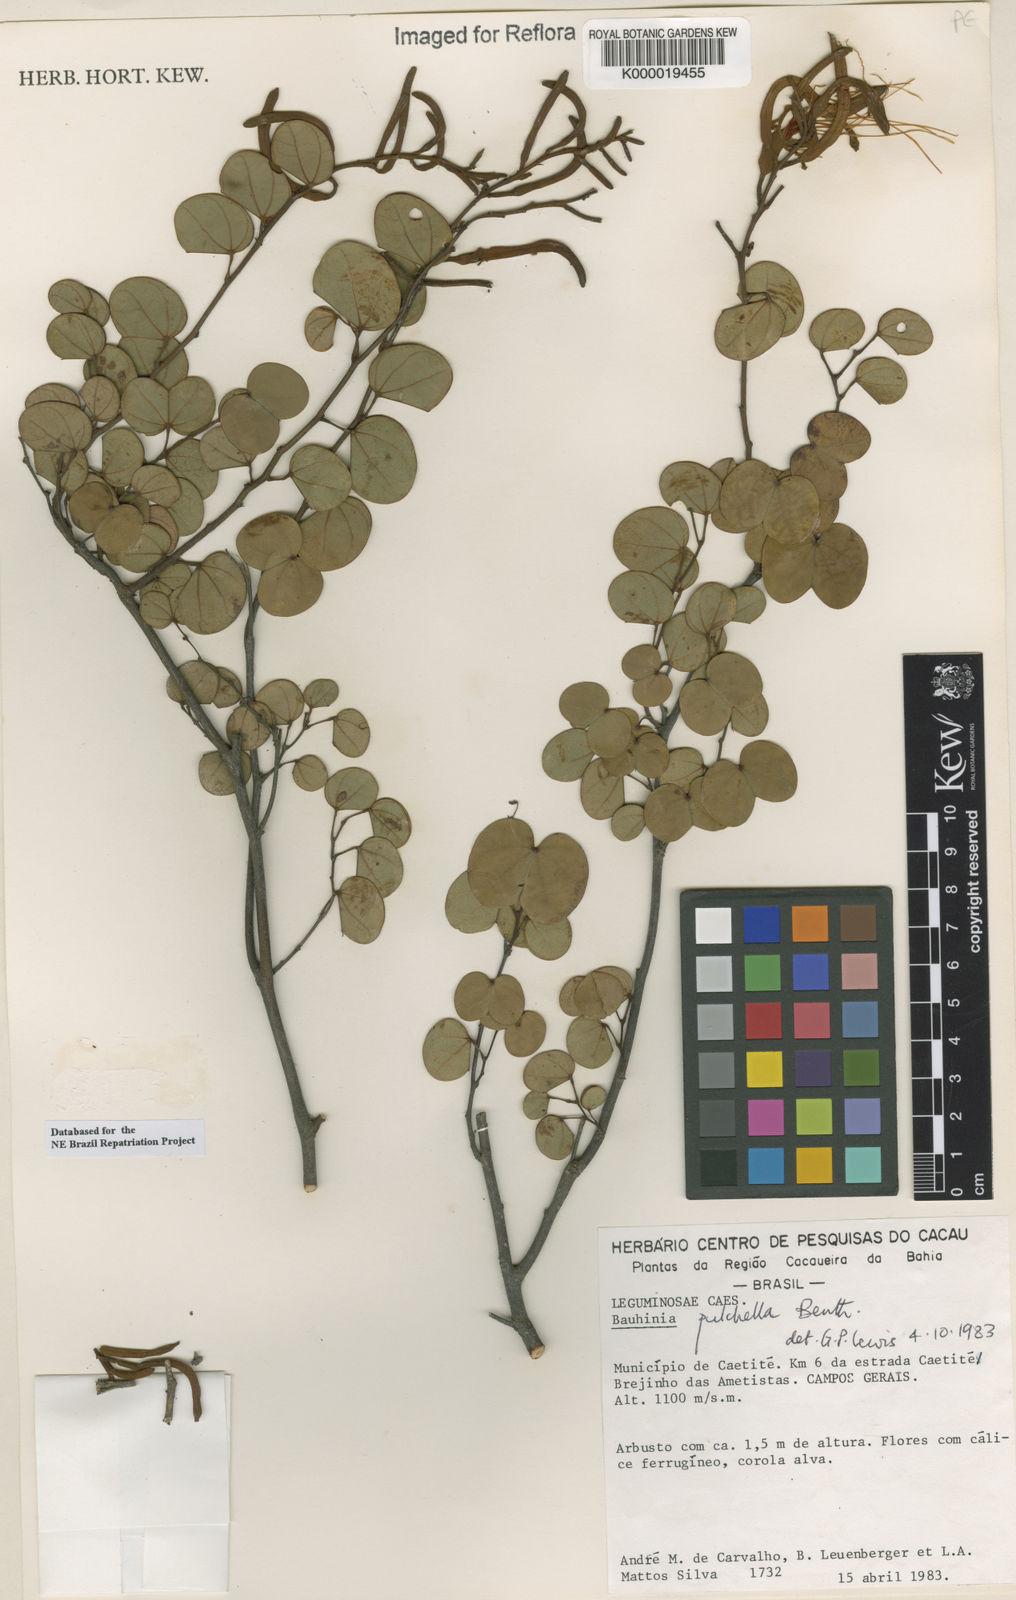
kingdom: Plantae
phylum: Tracheophyta
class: Magnoliopsida
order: Fabales
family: Fabaceae
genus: Bauhinia
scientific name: Bauhinia pulchella
